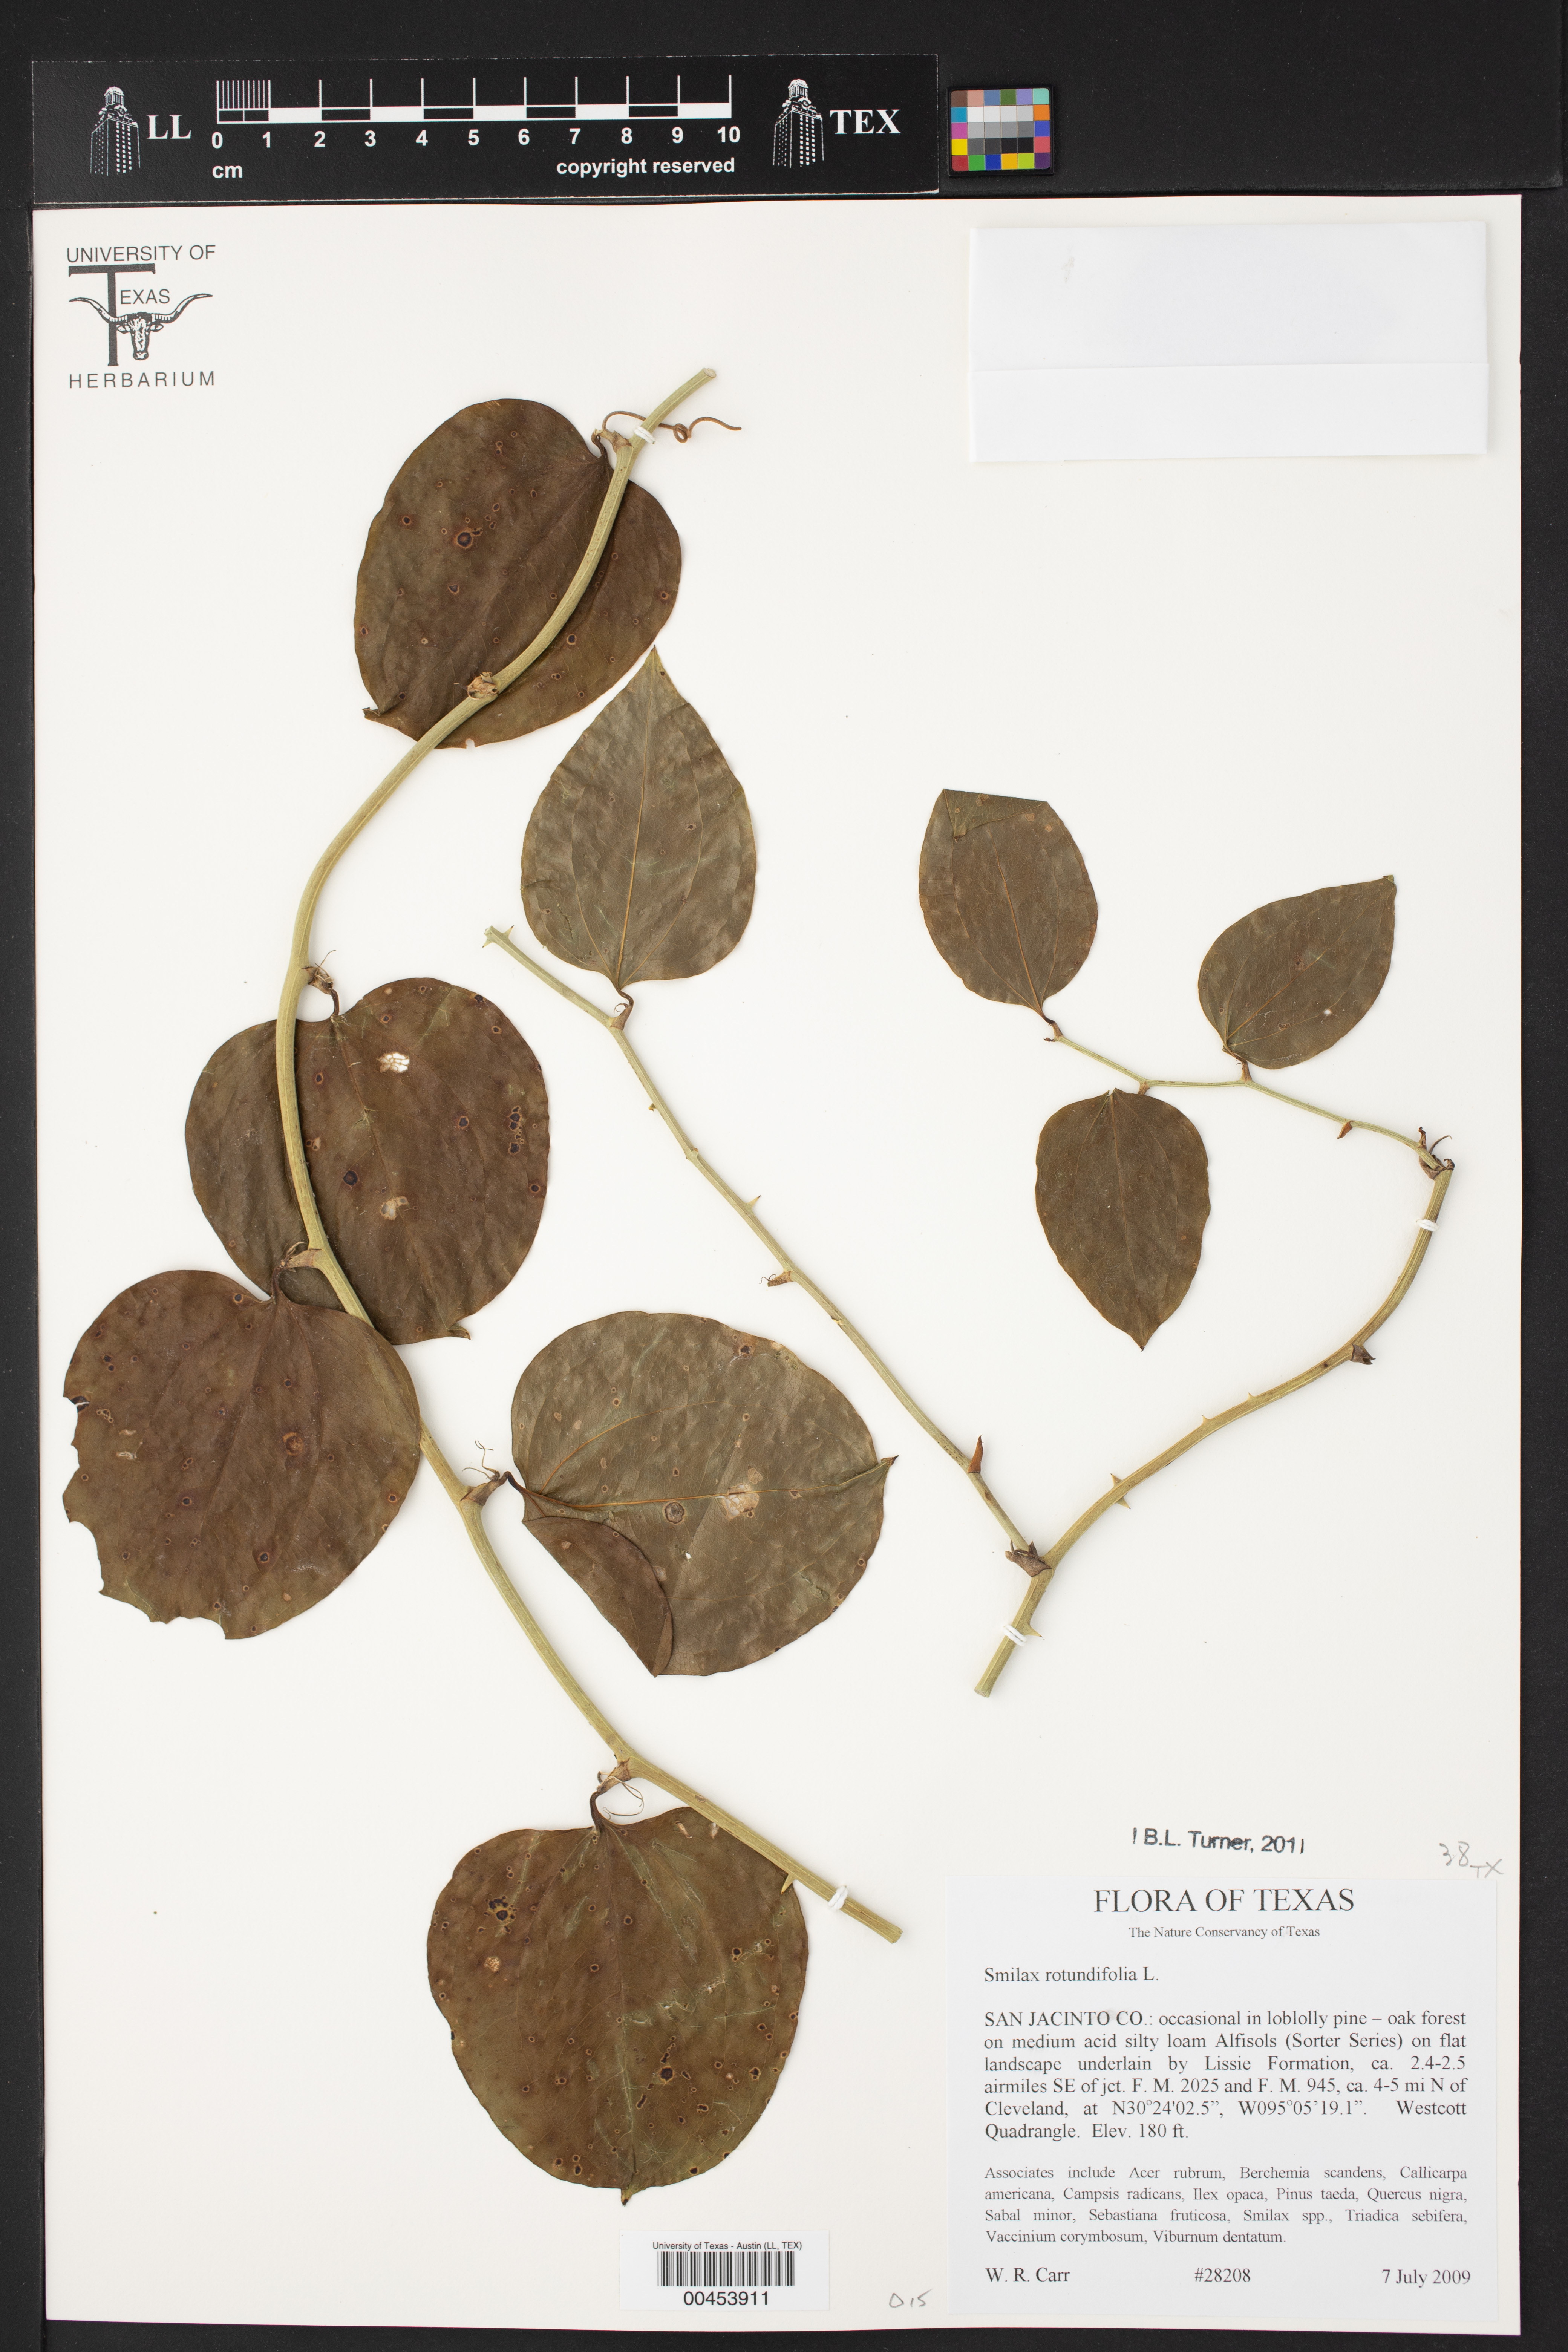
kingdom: Plantae
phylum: Tracheophyta
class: Liliopsida
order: Liliales
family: Smilacaceae
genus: Smilax
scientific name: Smilax rotundifolia
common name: Bullbriar
